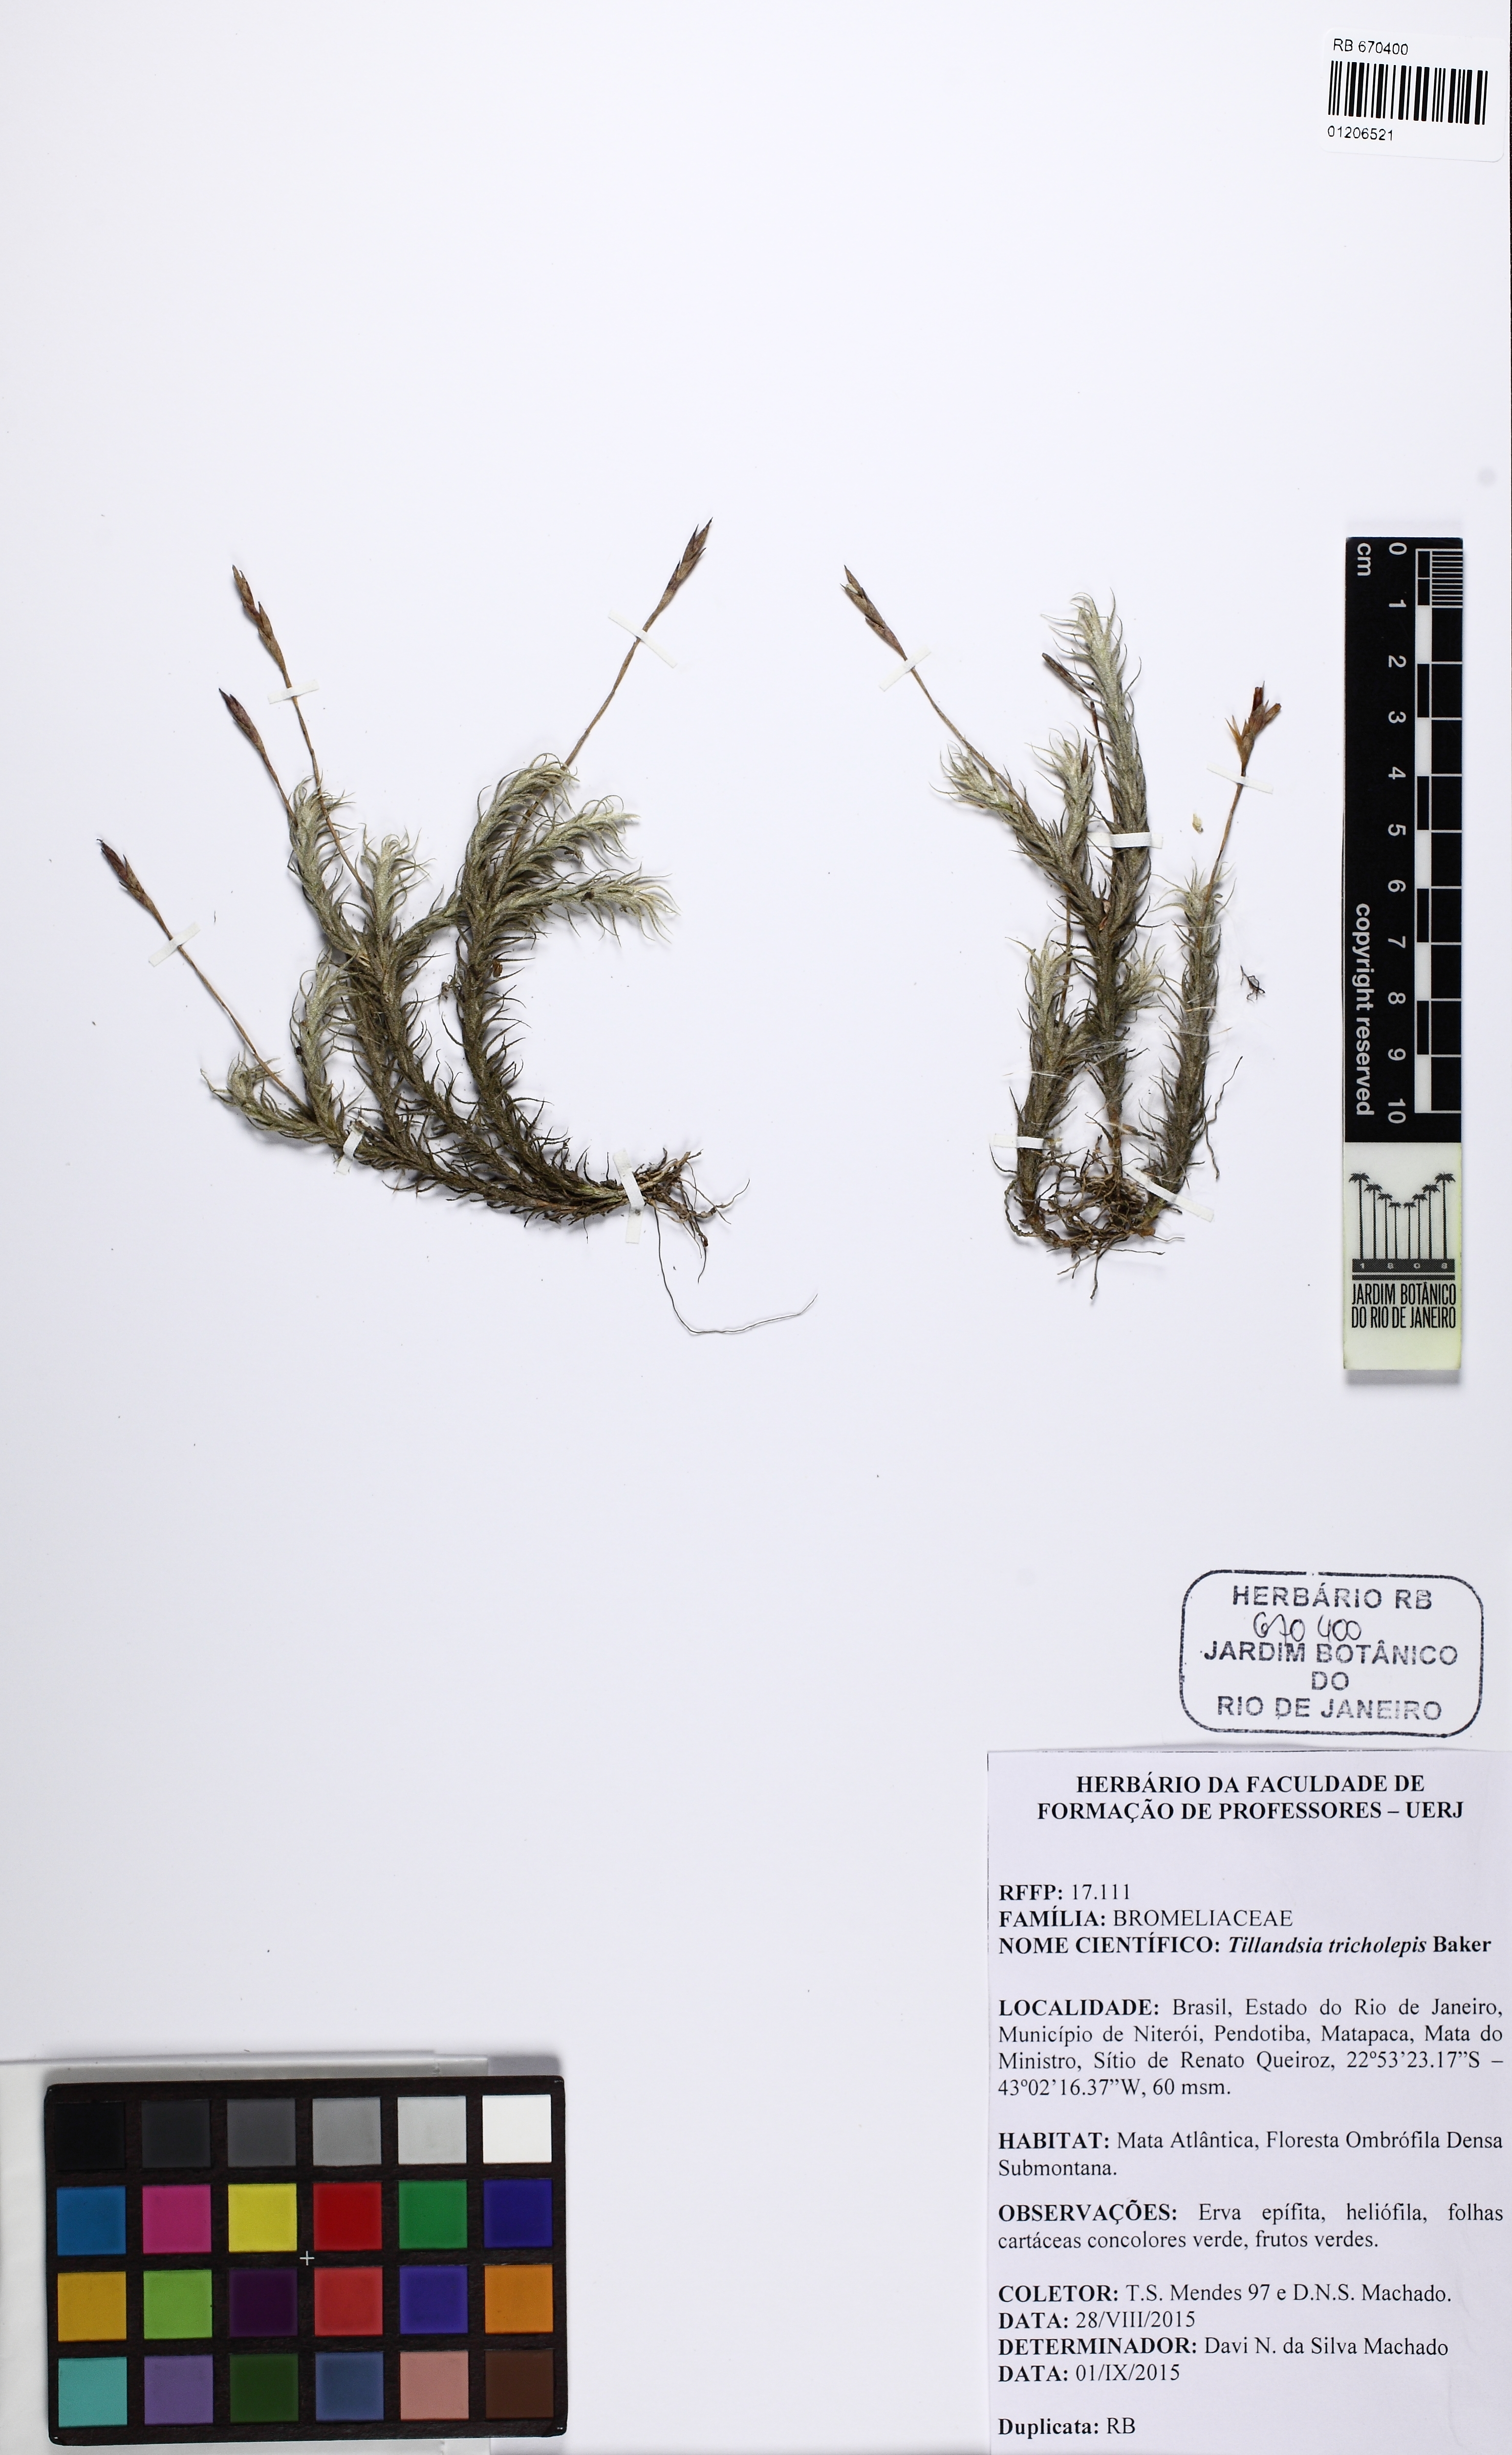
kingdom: Plantae
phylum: Tracheophyta
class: Liliopsida
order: Poales
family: Bromeliaceae
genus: Tillandsia
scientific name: Tillandsia tricholepis
